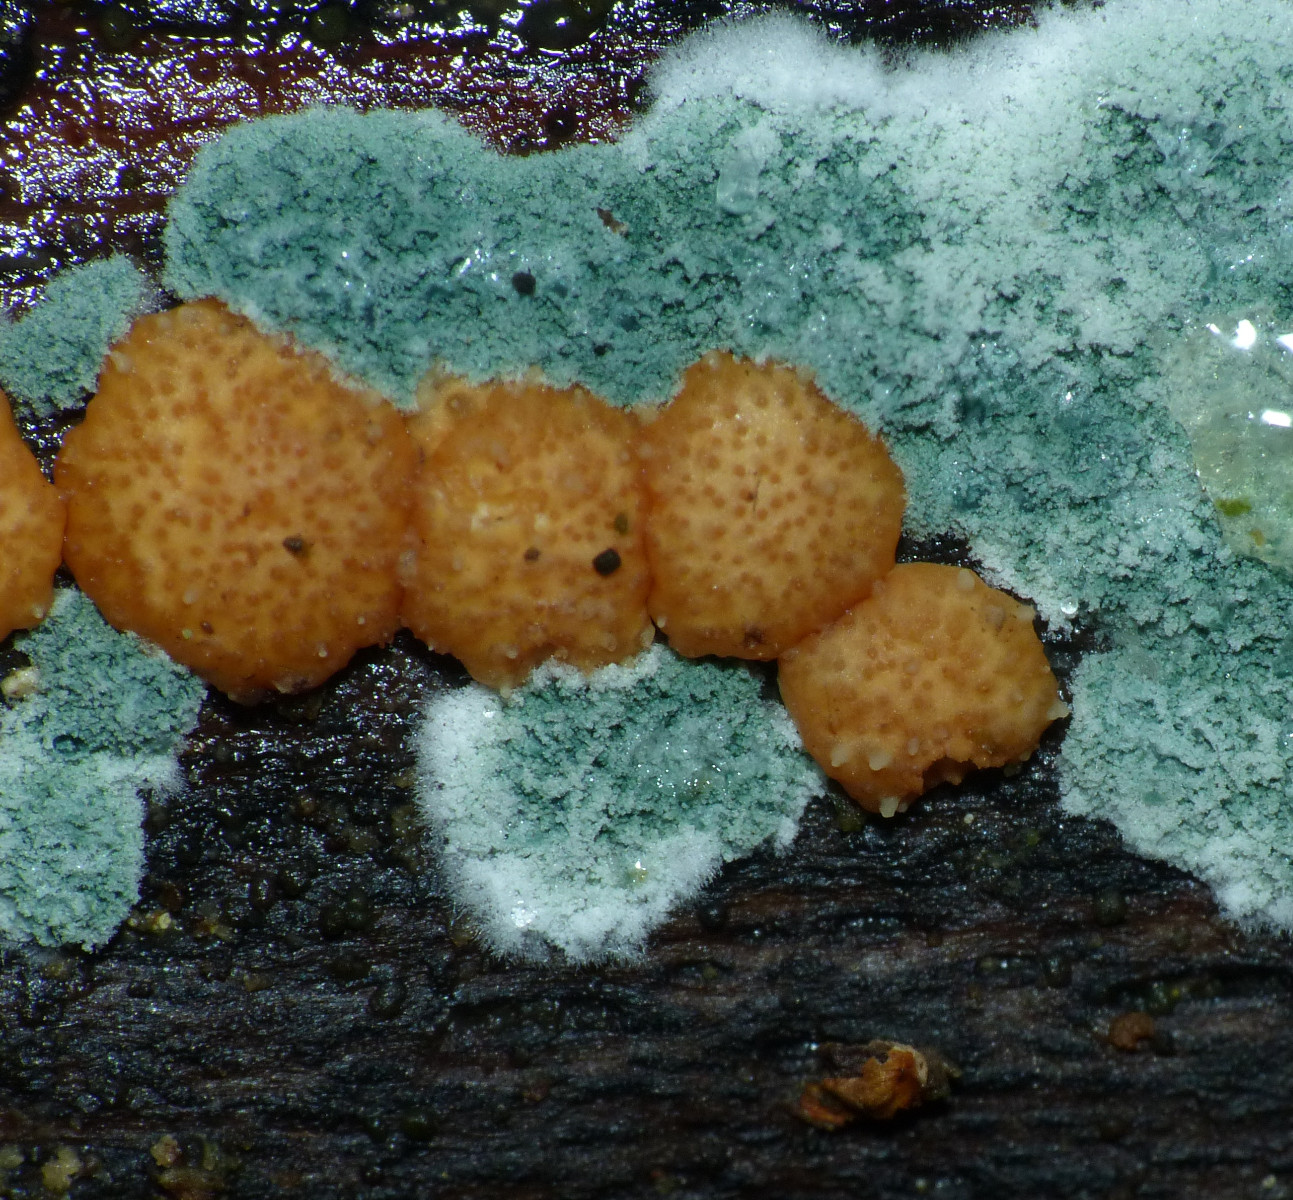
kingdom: Fungi
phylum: Ascomycota
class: Sordariomycetes
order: Hypocreales
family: Hypocreaceae
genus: Trichoderma
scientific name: Trichoderma europaeum
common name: rosabrun kødkerne
